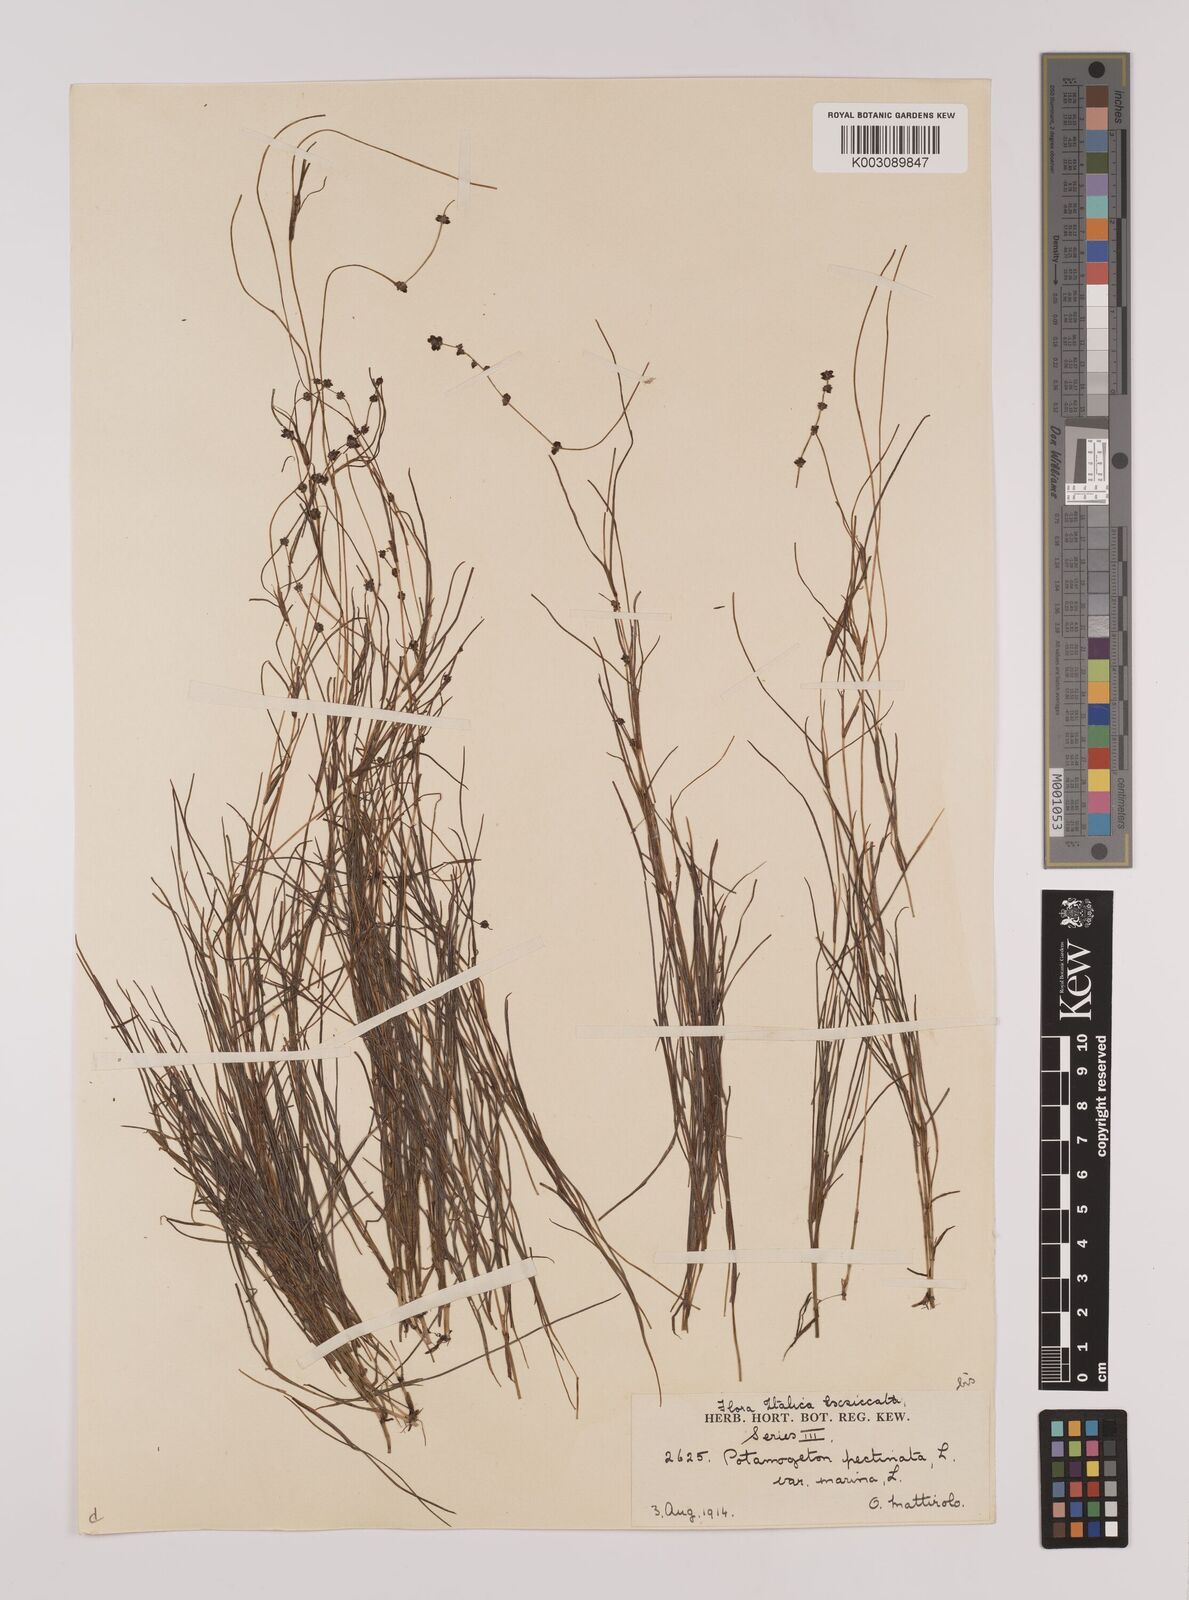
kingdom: Plantae
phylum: Tracheophyta
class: Liliopsida
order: Alismatales
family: Potamogetonaceae
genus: Stuckenia
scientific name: Stuckenia pectinata
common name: Sago pondweed
